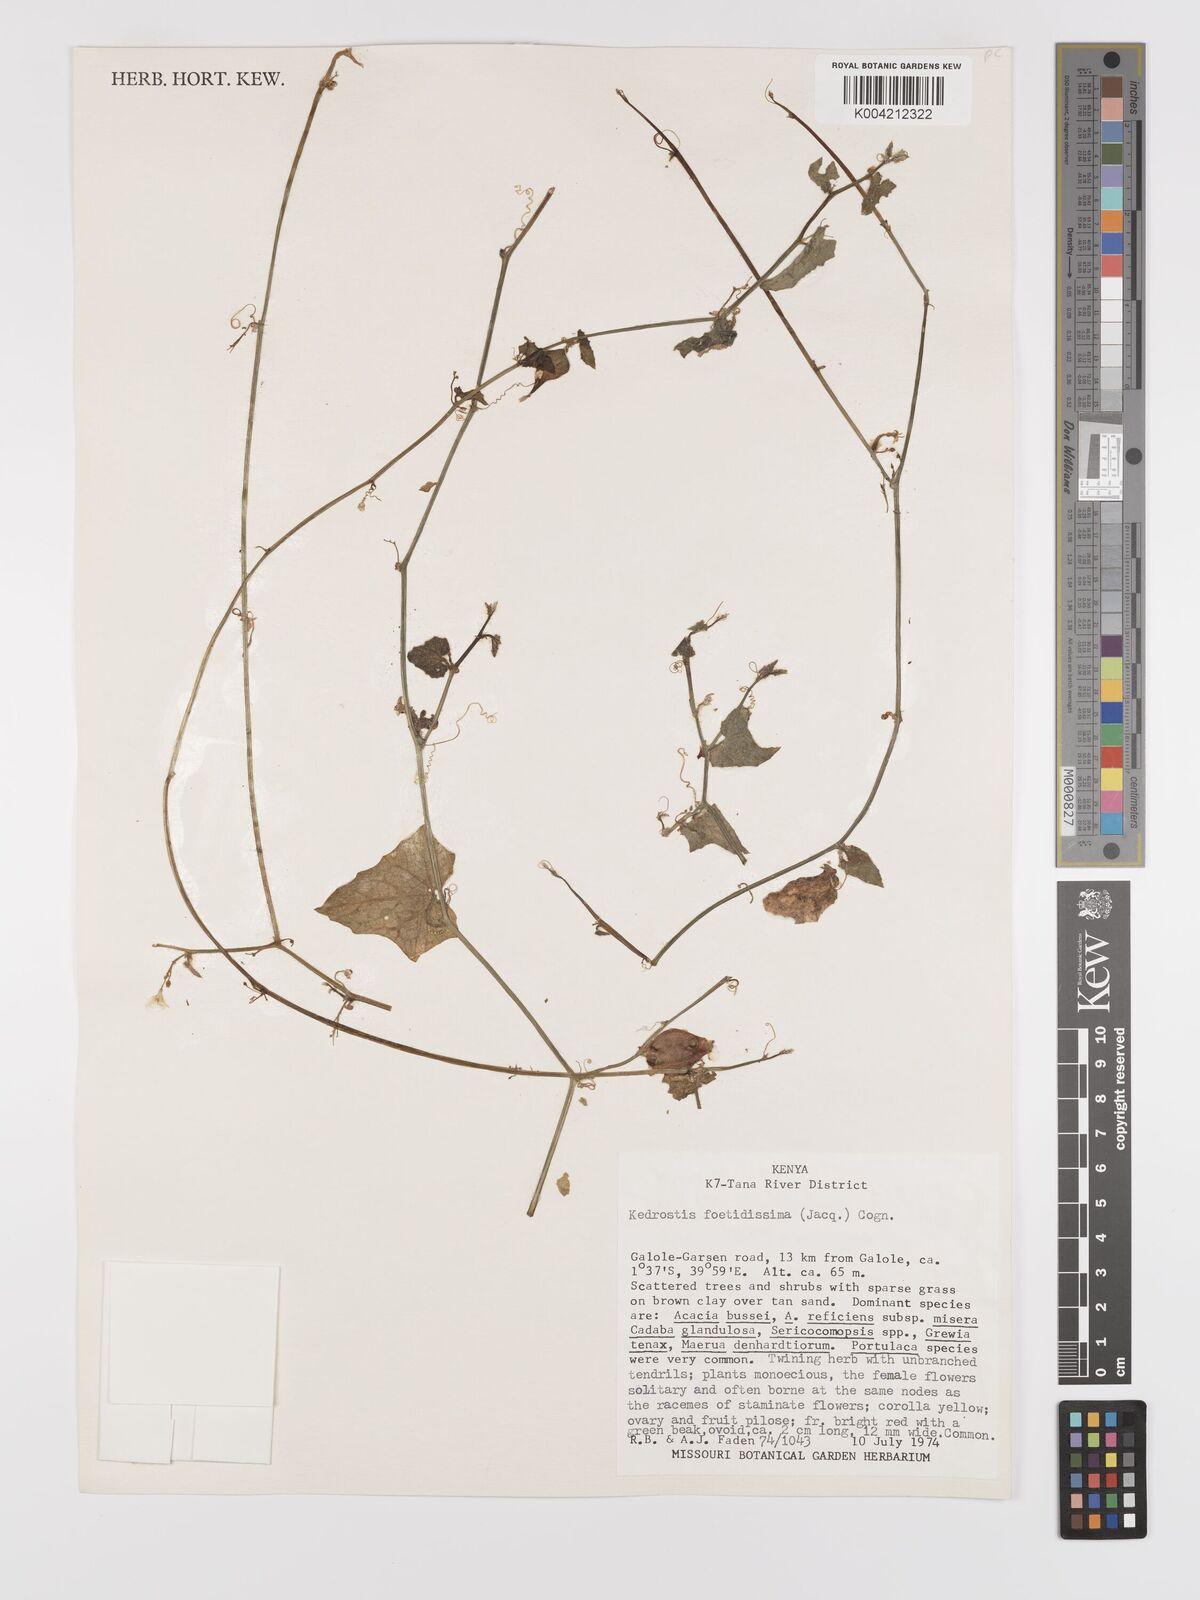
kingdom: Plantae
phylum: Tracheophyta
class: Magnoliopsida
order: Cucurbitales
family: Cucurbitaceae
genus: Kedrostis
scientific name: Kedrostis foetidissima
